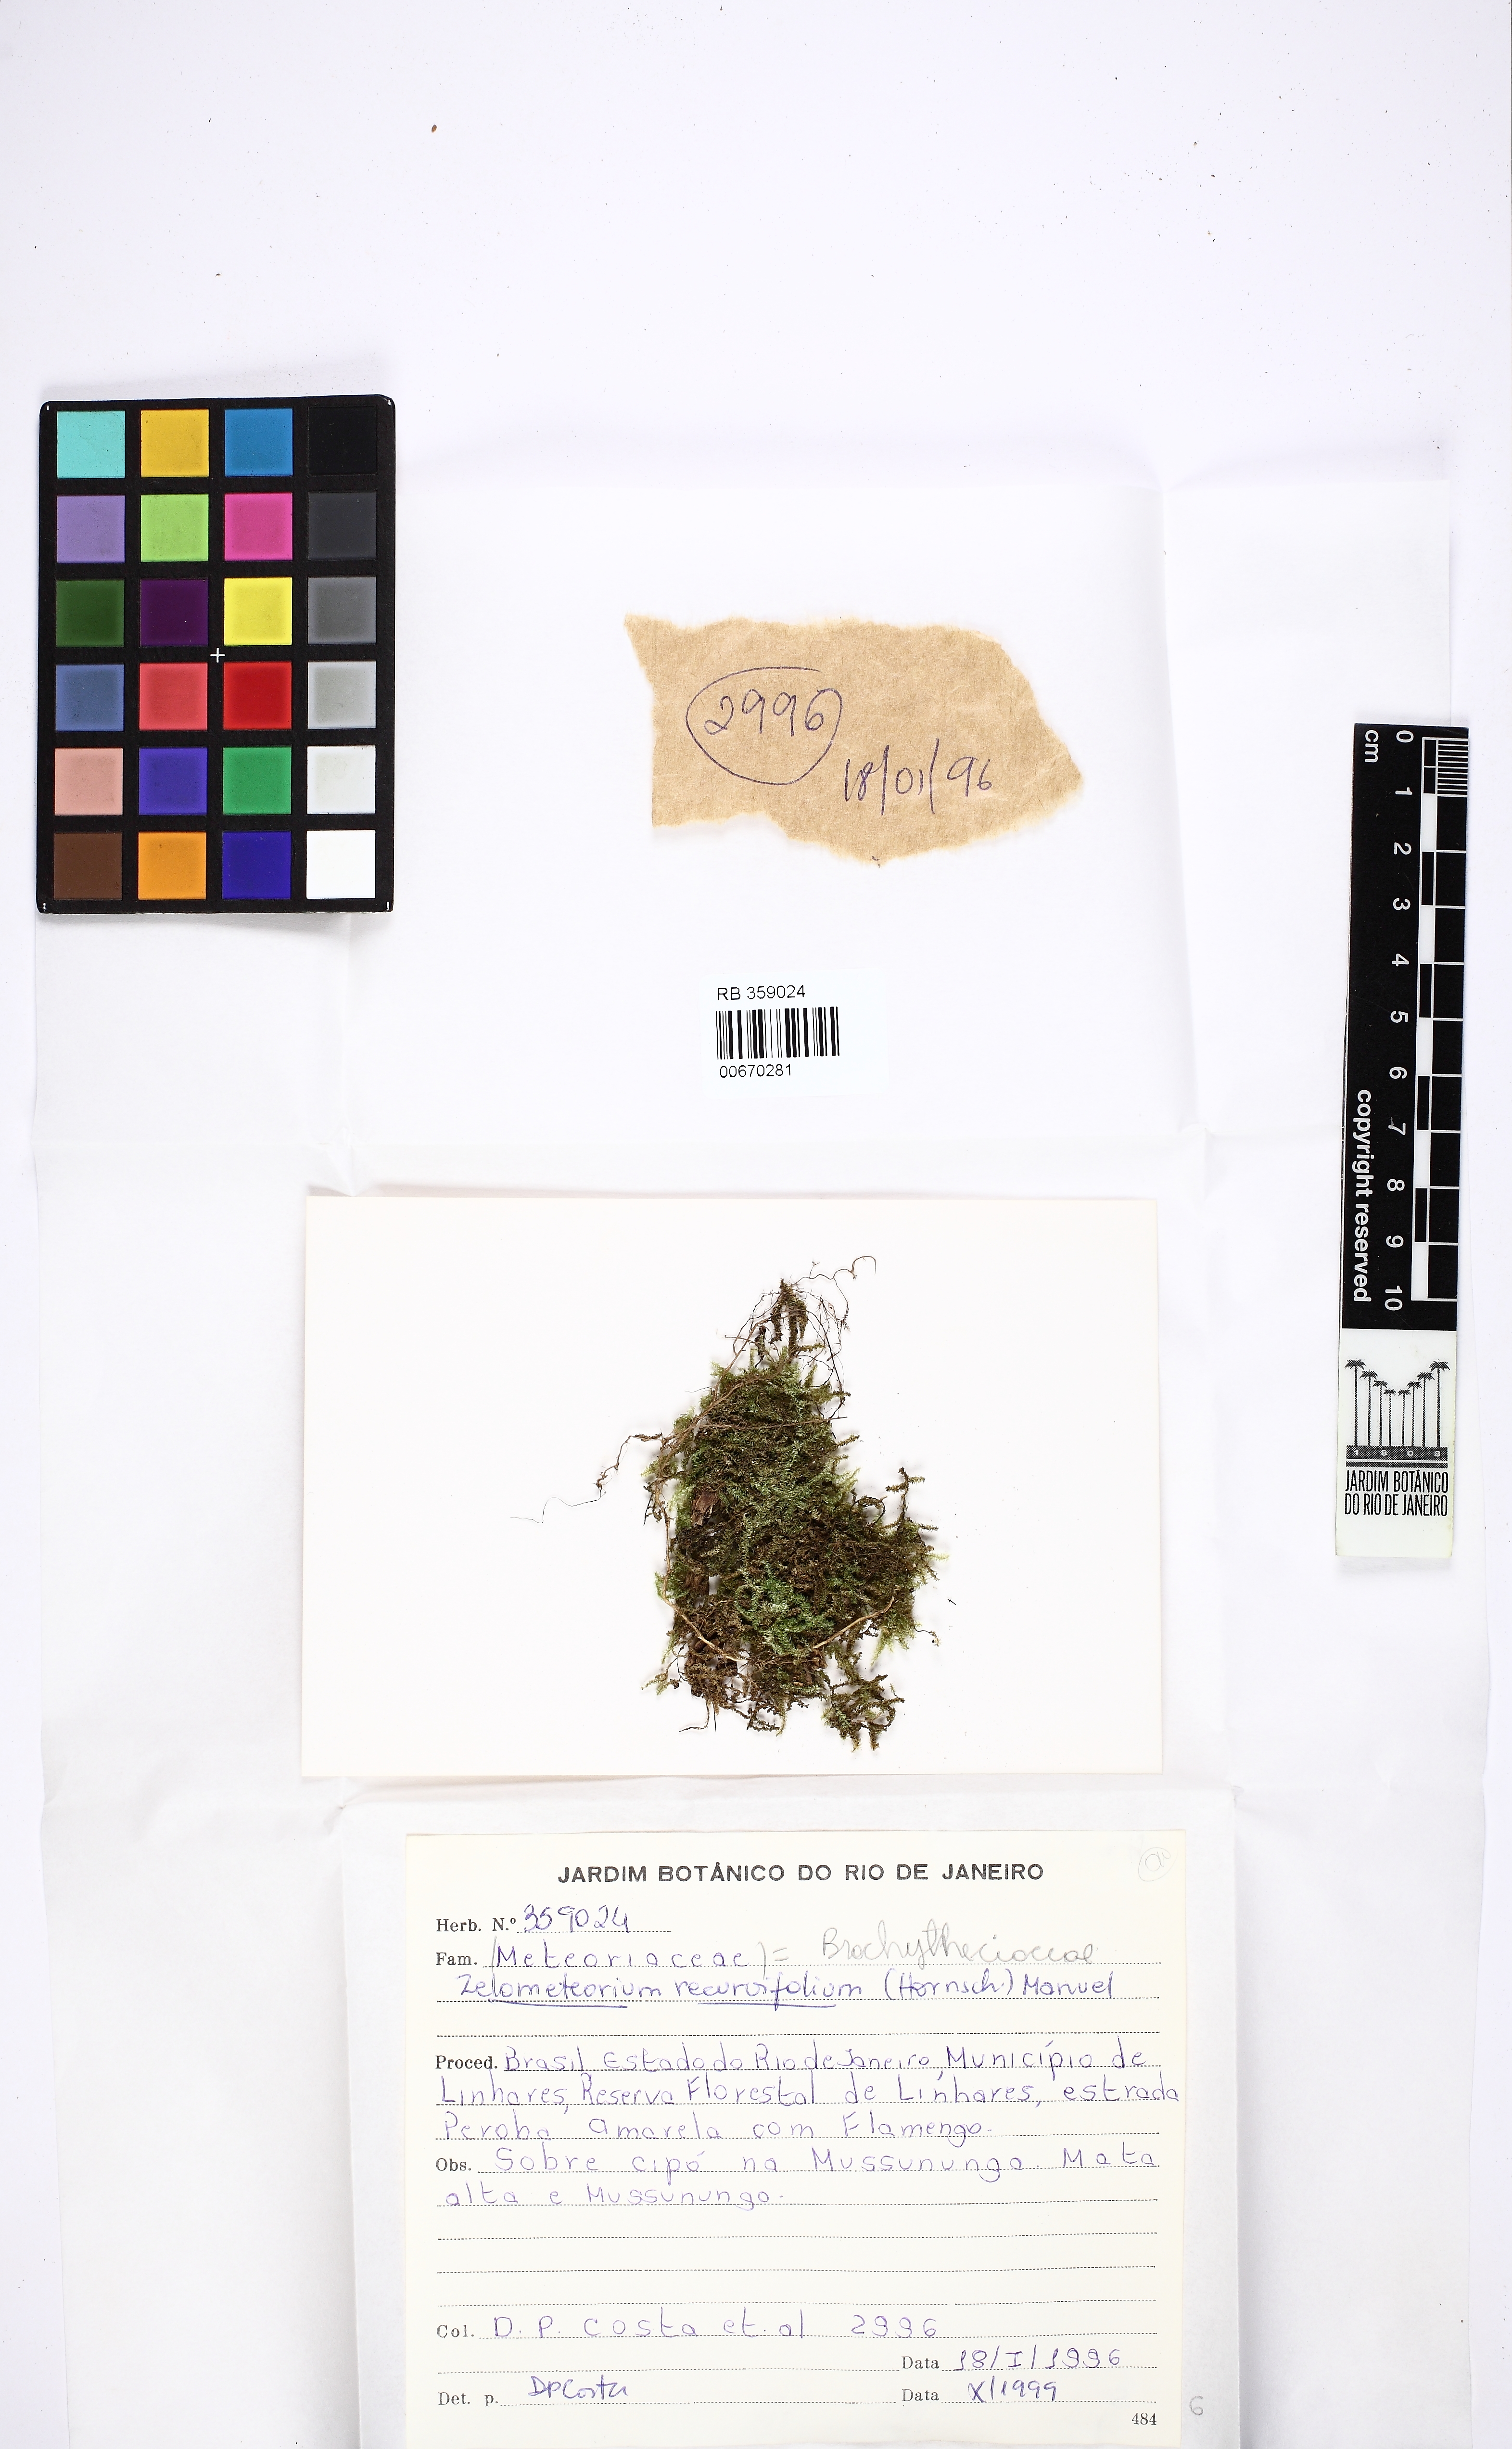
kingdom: Plantae
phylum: Bryophyta
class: Bryopsida
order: Hypnales
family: Brachytheciaceae
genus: Zelometeorium
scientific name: Zelometeorium recurvifolium
